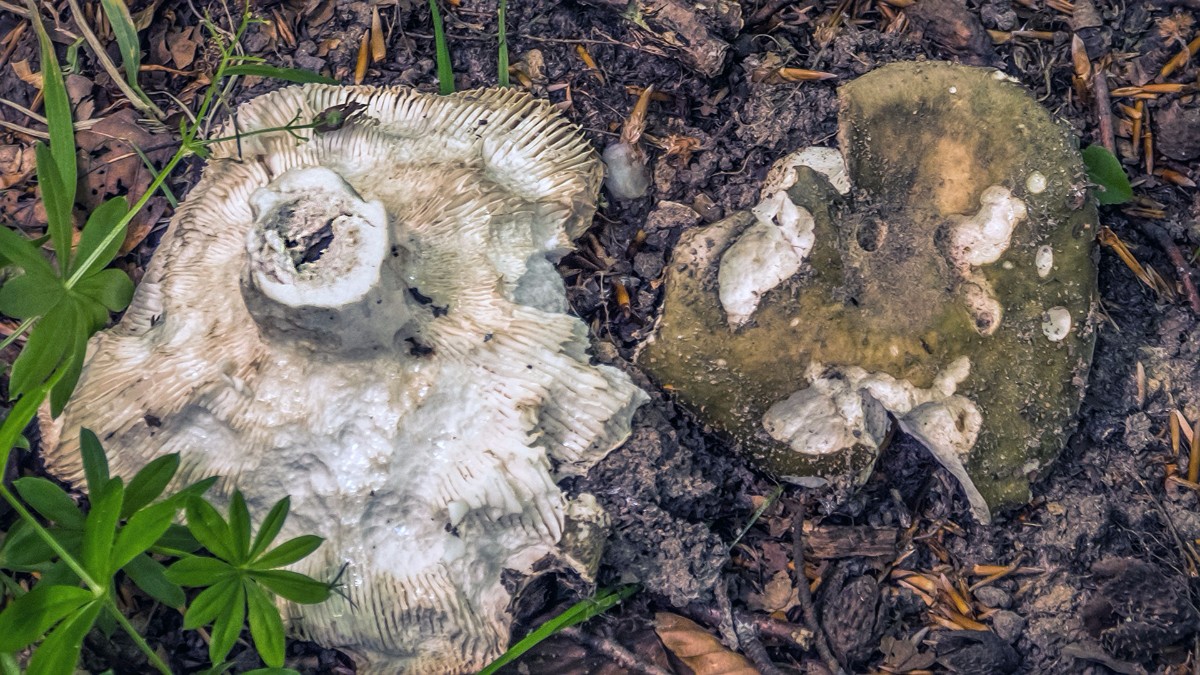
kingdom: Fungi
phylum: Basidiomycota
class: Agaricomycetes
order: Russulales
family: Russulaceae
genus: Russula
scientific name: Russula graveolens
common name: bugtet skørhat
